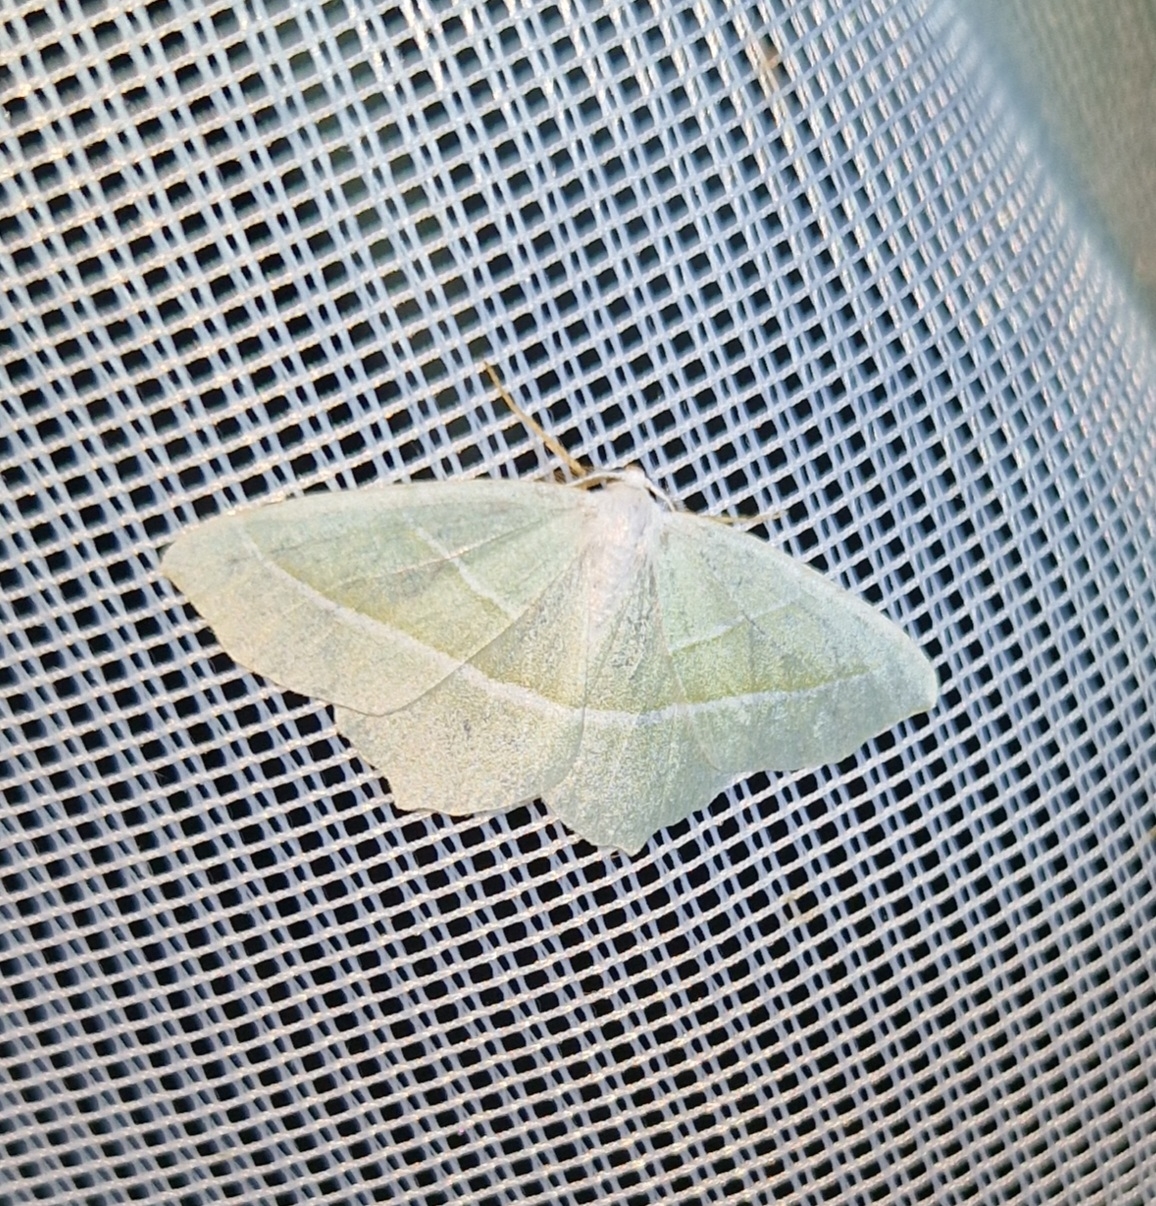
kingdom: Animalia
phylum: Arthropoda
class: Insecta
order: Lepidoptera
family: Geometridae
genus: Campaea
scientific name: Campaea margaritaria
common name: Perlemåler
